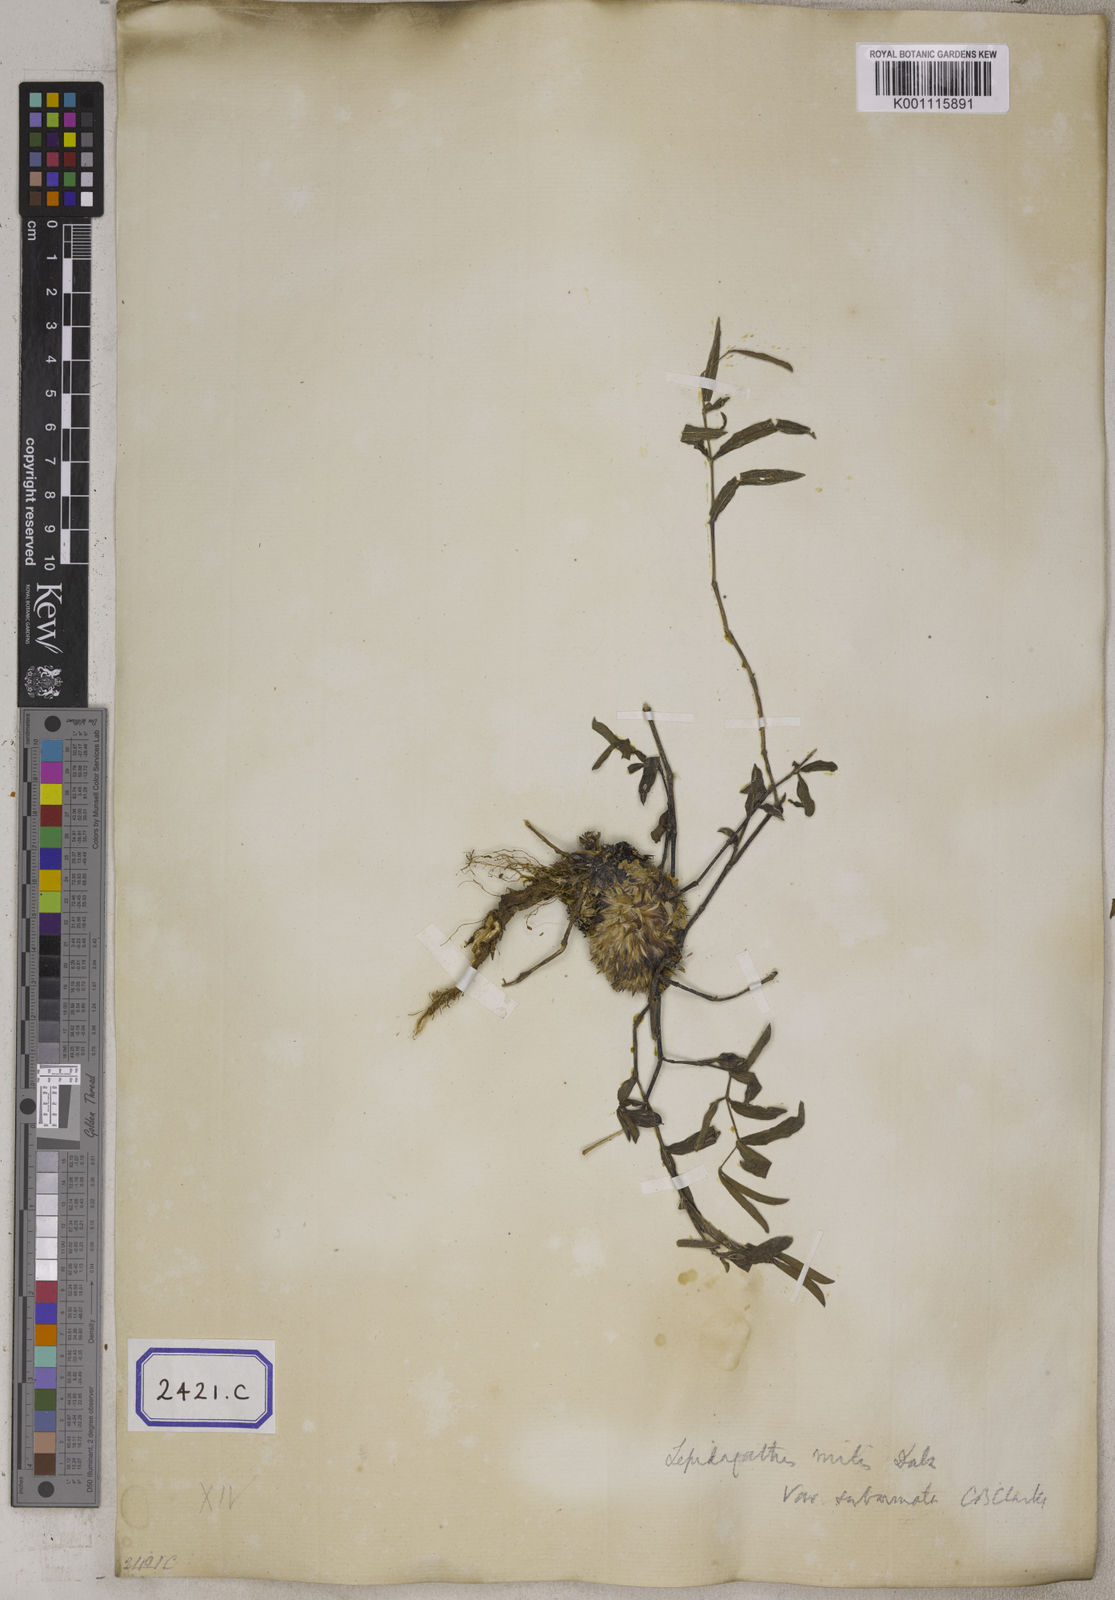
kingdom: Plantae
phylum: Tracheophyta
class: Magnoliopsida
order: Lamiales
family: Acanthaceae
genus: Lepidagathis
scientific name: Lepidagathis cristata
